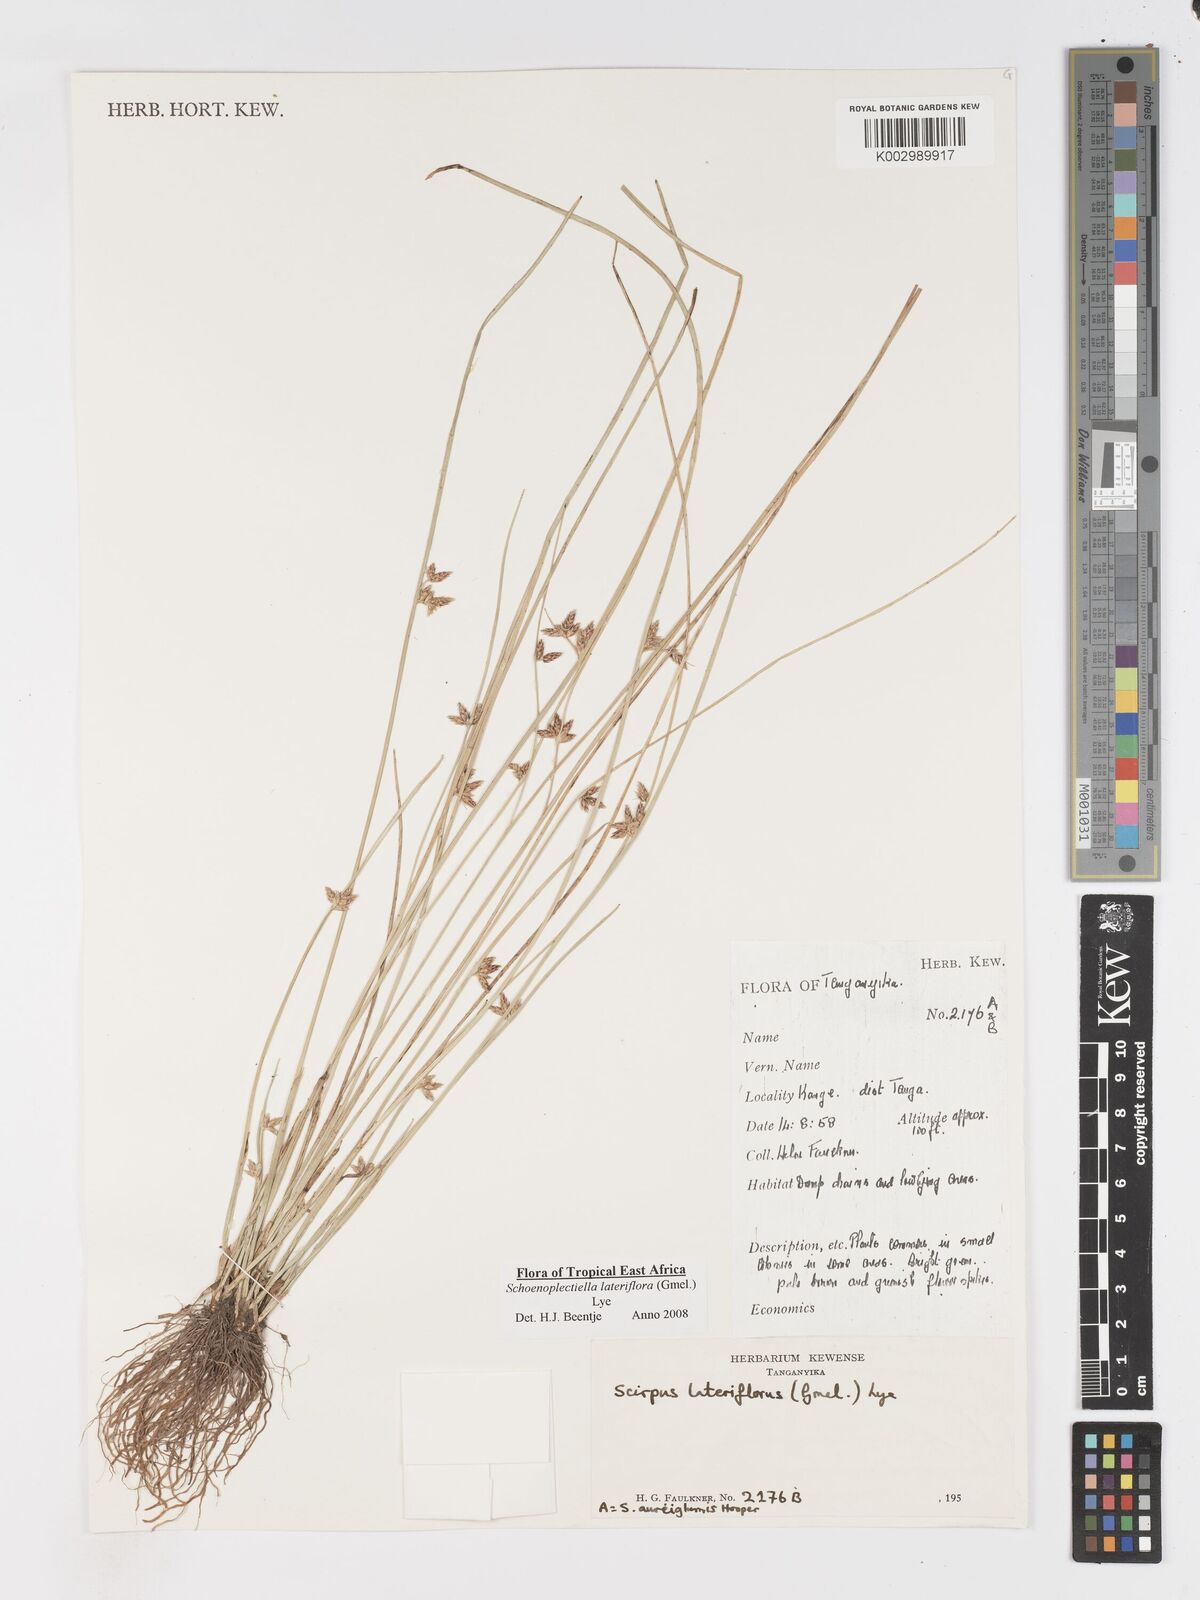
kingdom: Plantae
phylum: Tracheophyta
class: Liliopsida
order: Poales
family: Cyperaceae
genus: Schoenoplectiella
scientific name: Schoenoplectiella lateriflora
